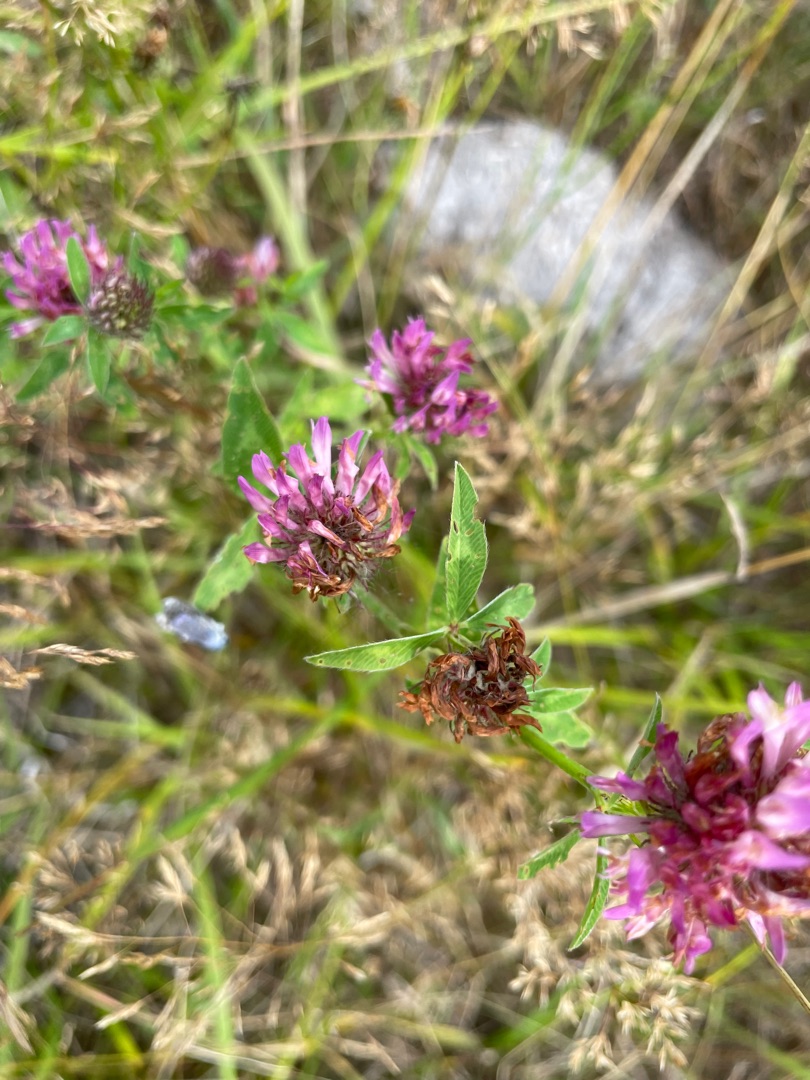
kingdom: Plantae
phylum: Tracheophyta
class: Magnoliopsida
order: Fabales
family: Fabaceae
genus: Trifolium
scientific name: Trifolium pratense
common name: Rød-kløver
